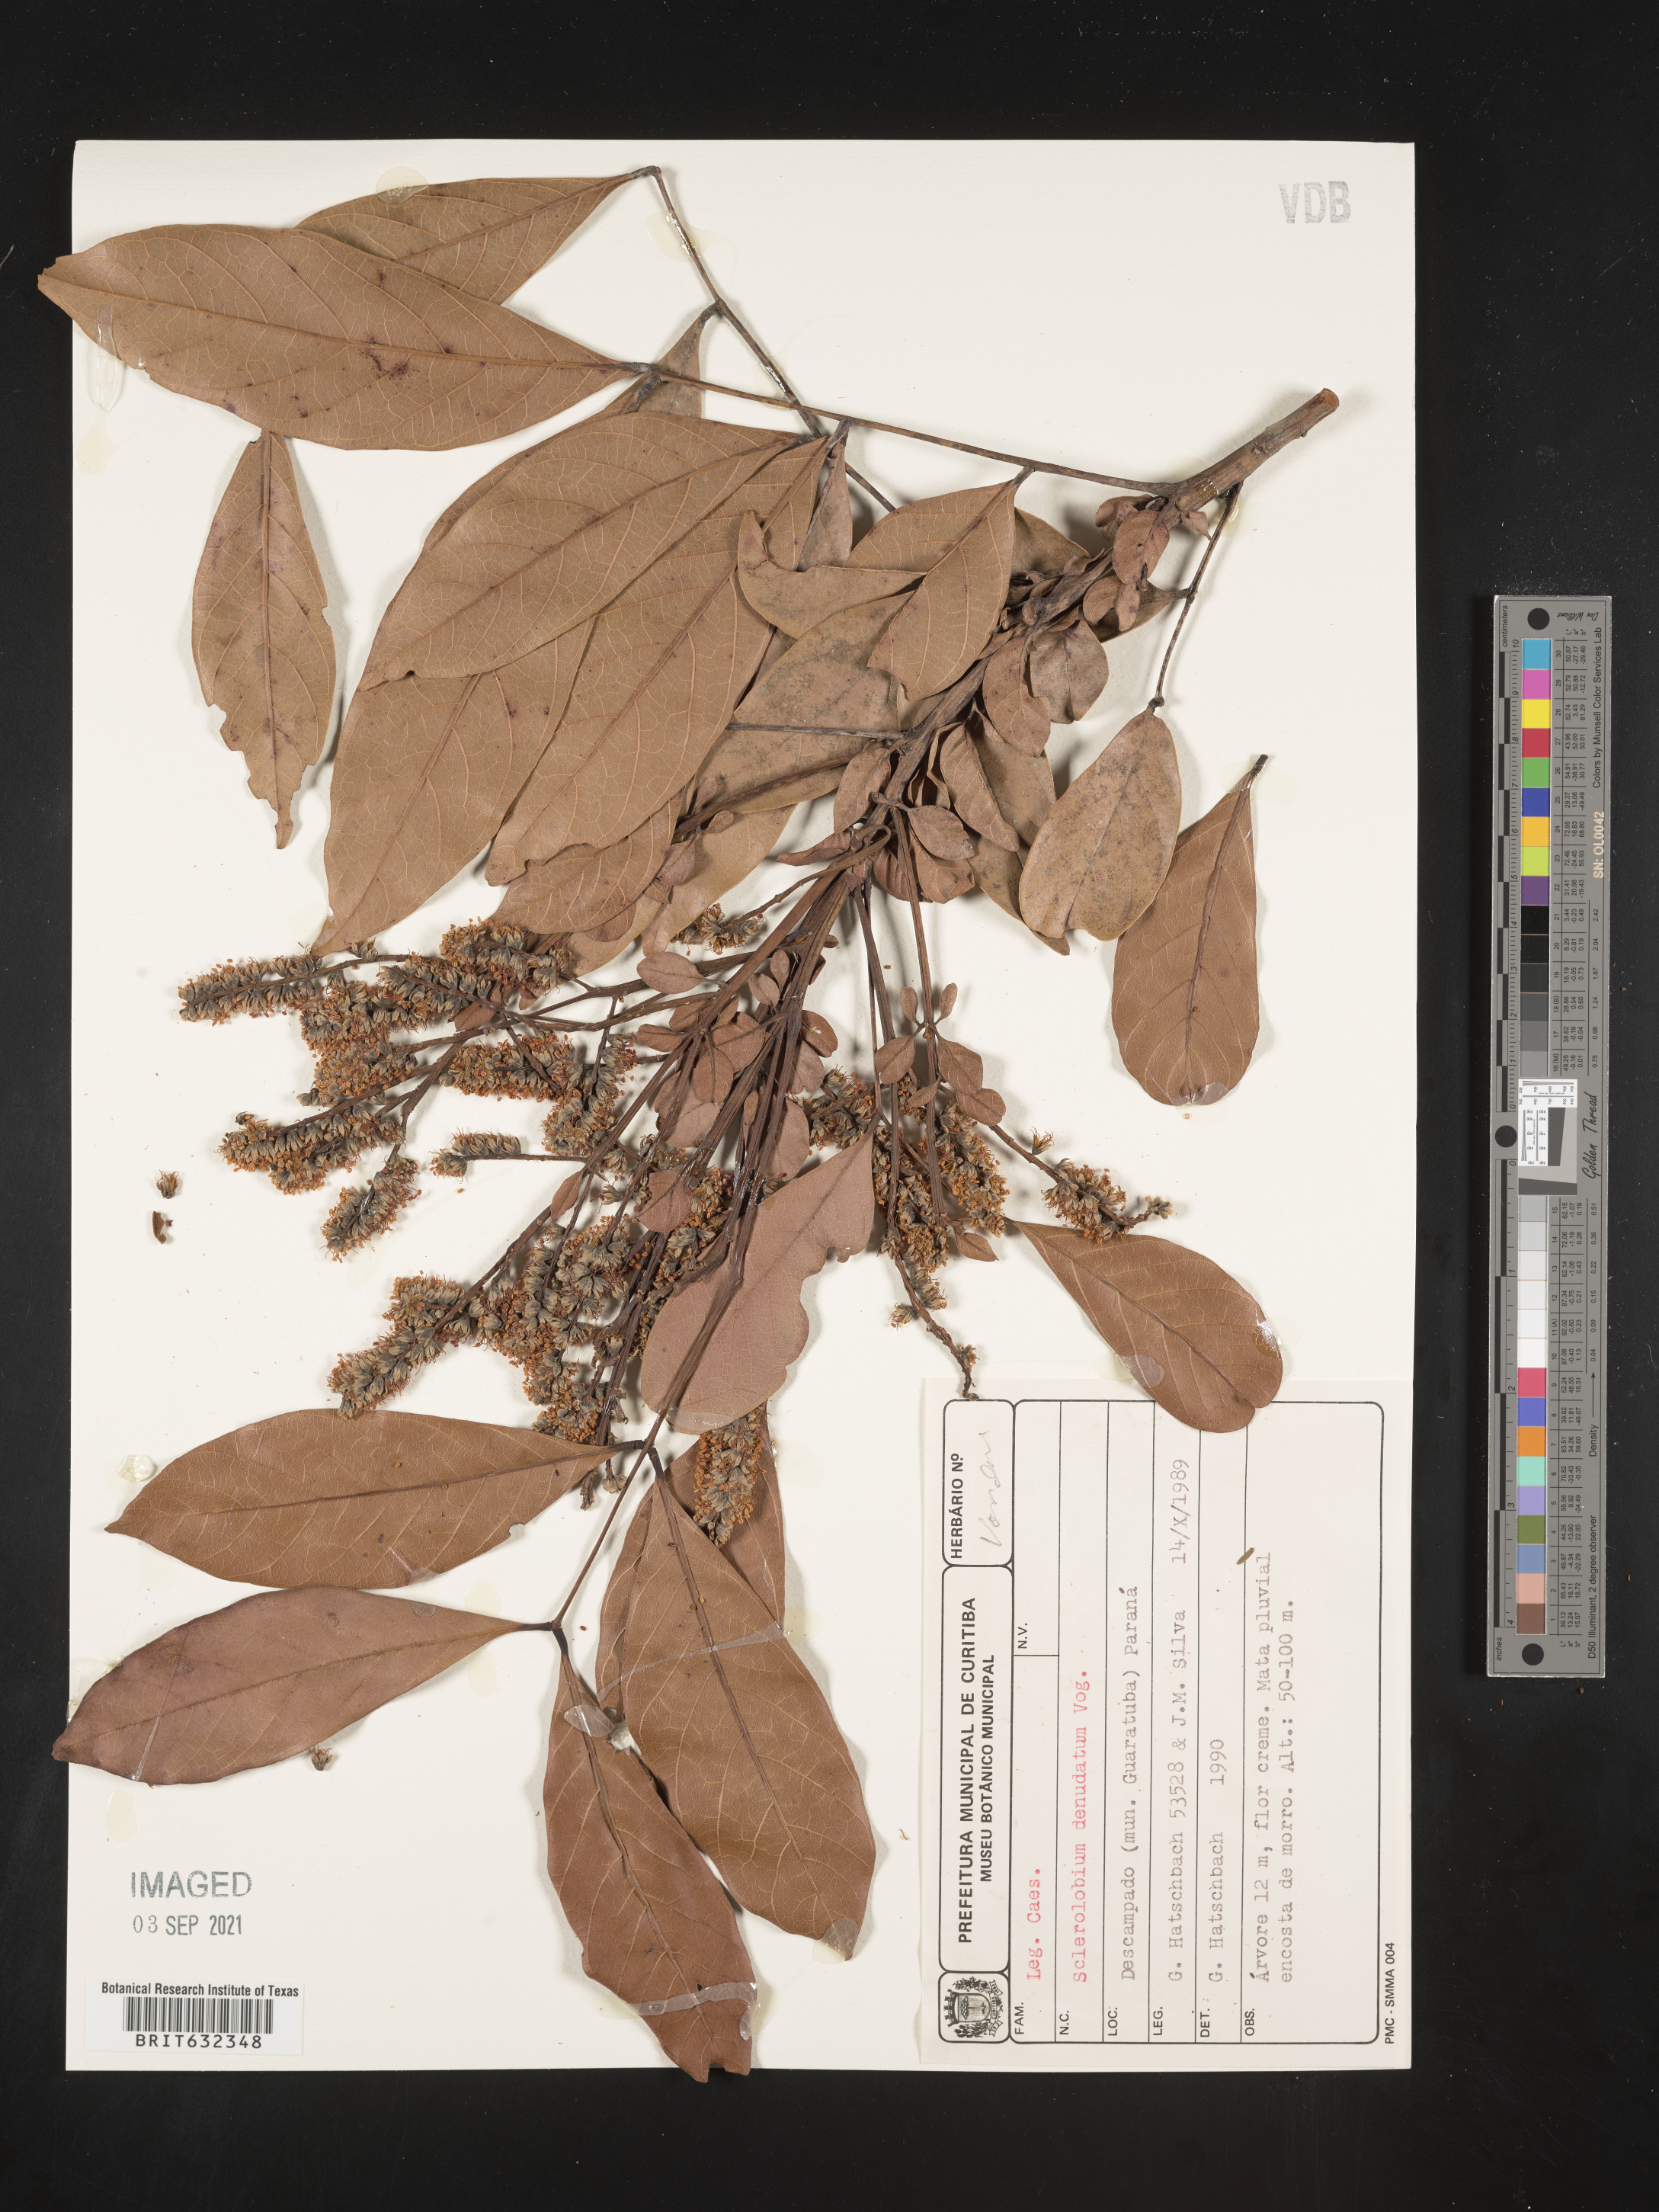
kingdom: Plantae
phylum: Tracheophyta
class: Magnoliopsida
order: Fabales
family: Fabaceae
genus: Tachigali
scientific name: Tachigali
